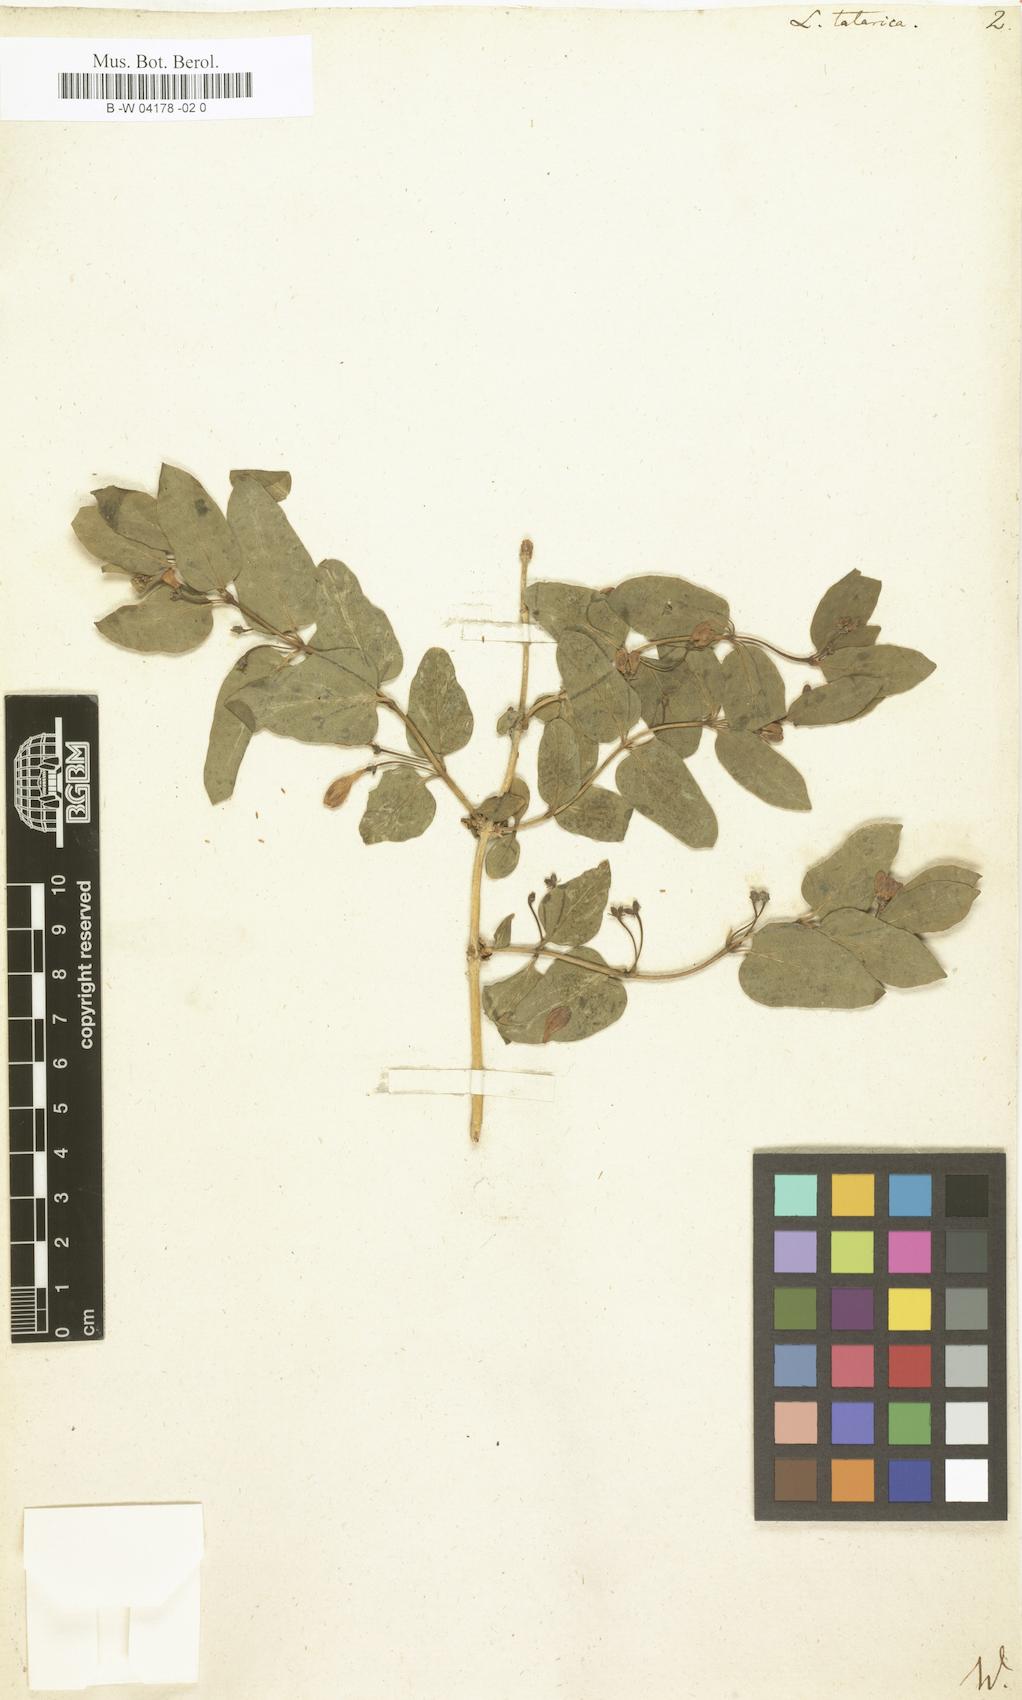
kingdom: Plantae
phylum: Tracheophyta
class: Magnoliopsida
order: Dipsacales
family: Caprifoliaceae
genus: Lonicera
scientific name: Lonicera tatarica
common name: Tatarian honeysuckle
